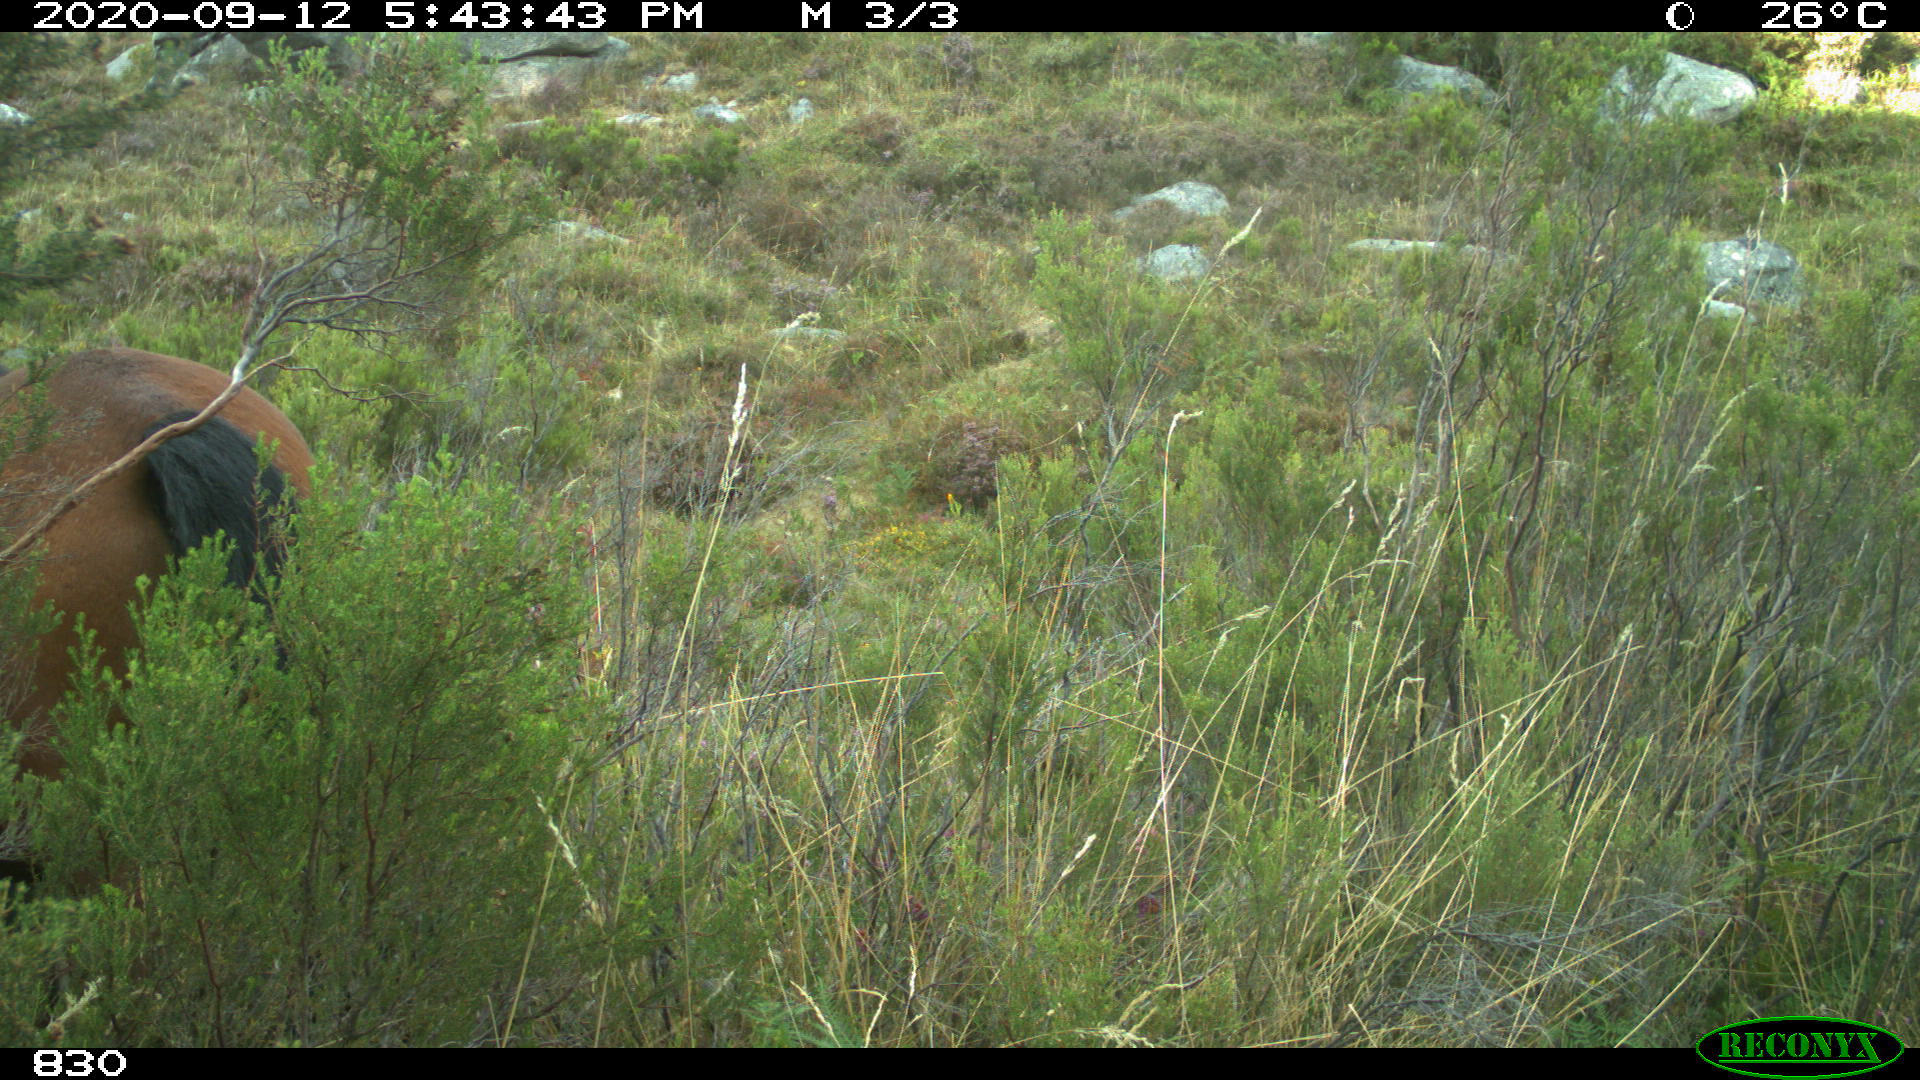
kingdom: Animalia
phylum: Chordata
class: Mammalia
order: Perissodactyla
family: Equidae
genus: Equus
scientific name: Equus caballus
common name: Horse
